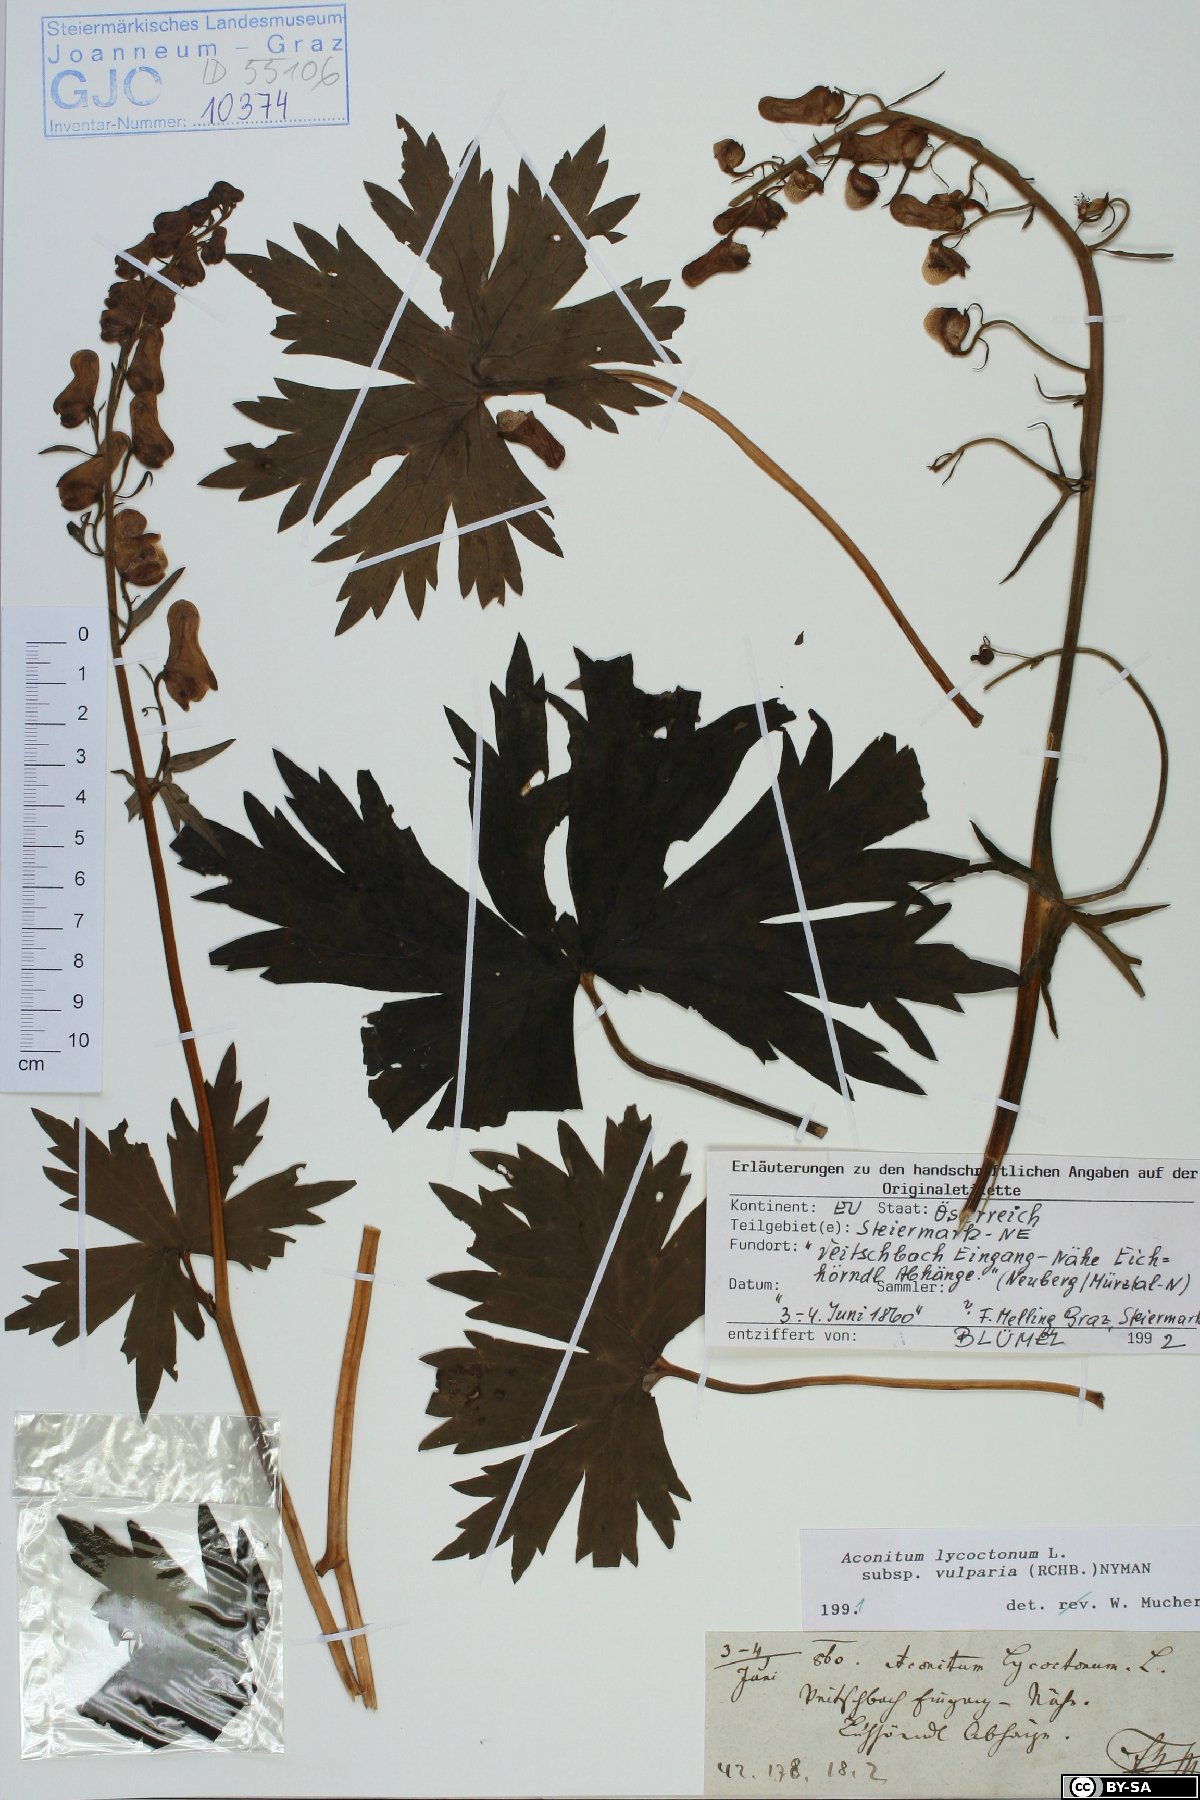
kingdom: Plantae
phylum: Tracheophyta
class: Magnoliopsida
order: Ranunculales
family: Ranunculaceae
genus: Aconitum
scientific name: Aconitum lycoctonum
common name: Wolf's-bane
